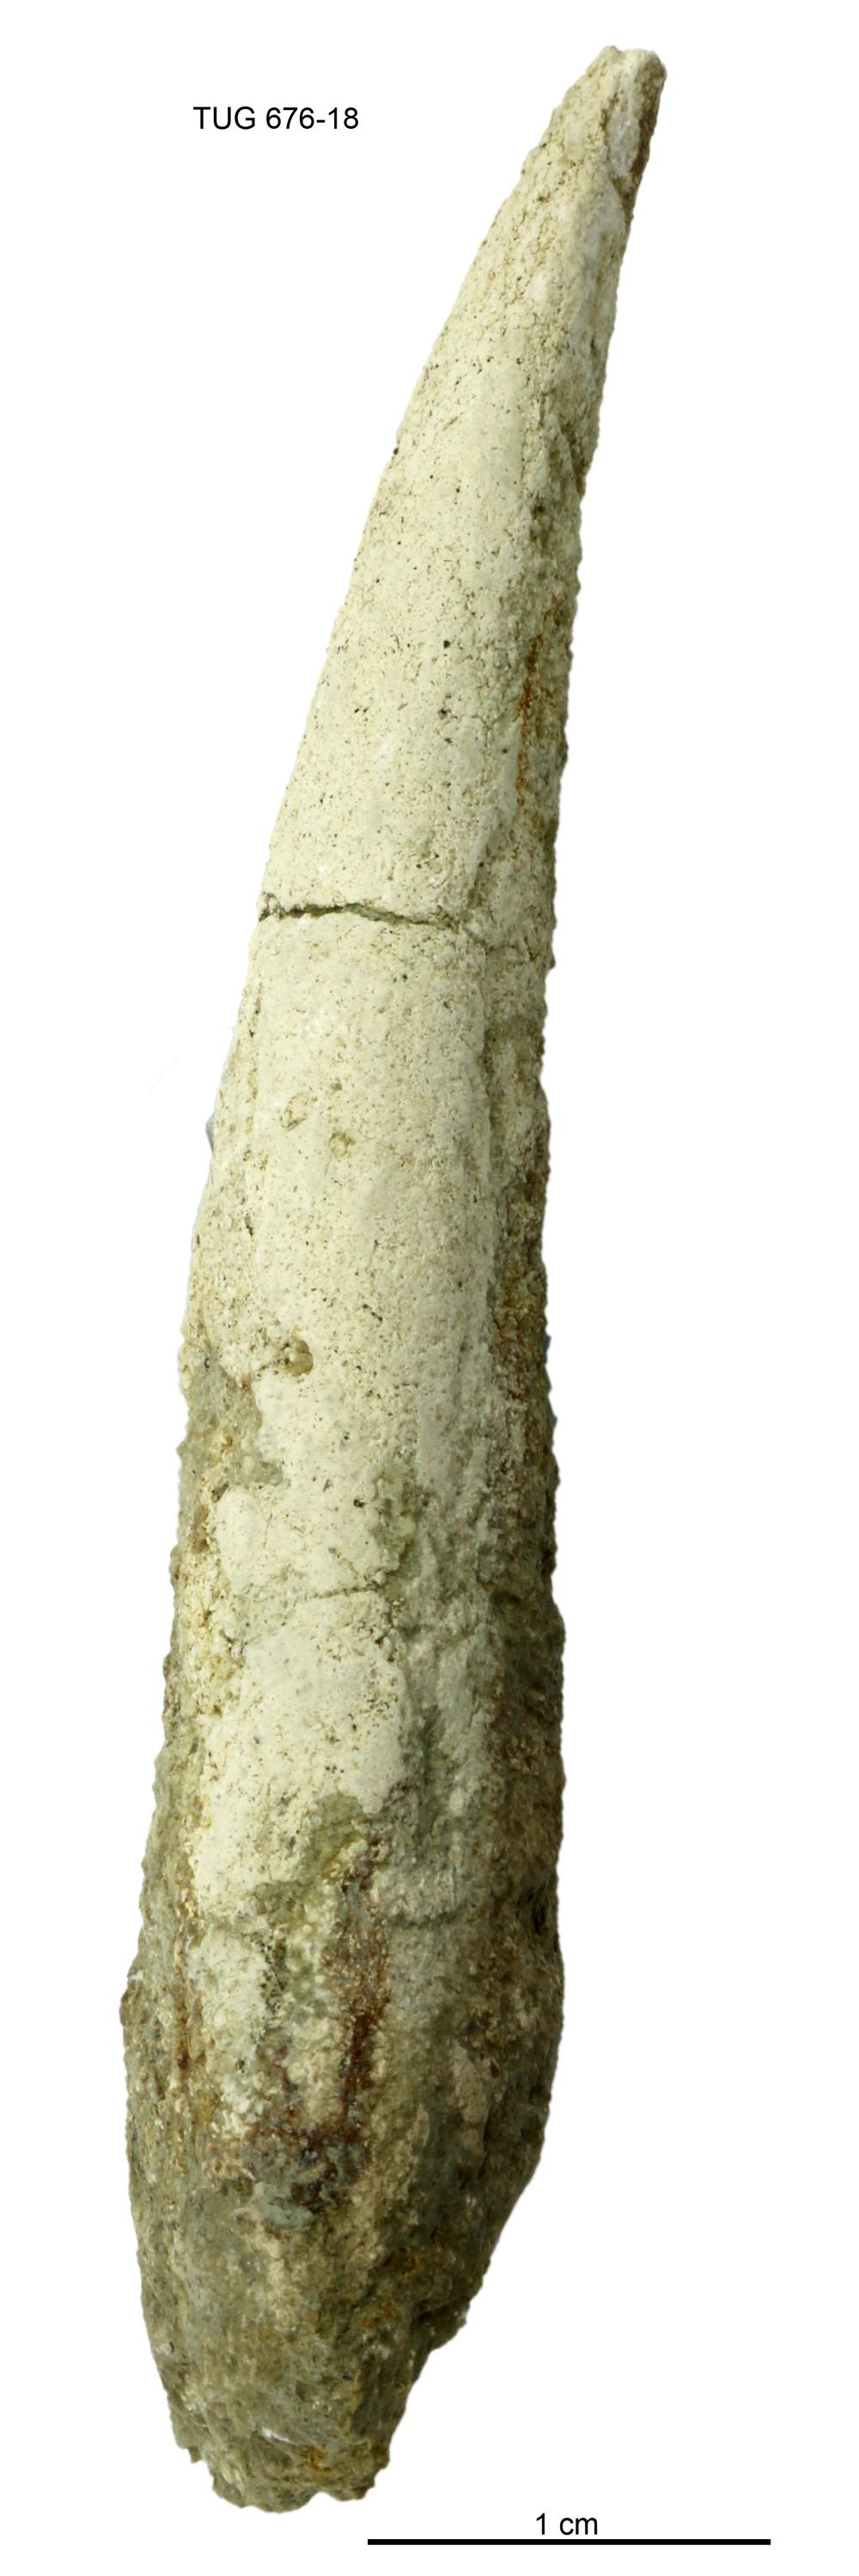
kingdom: Animalia
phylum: Annelida
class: Polychaeta
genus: Hyolithes
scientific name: Hyolithes
